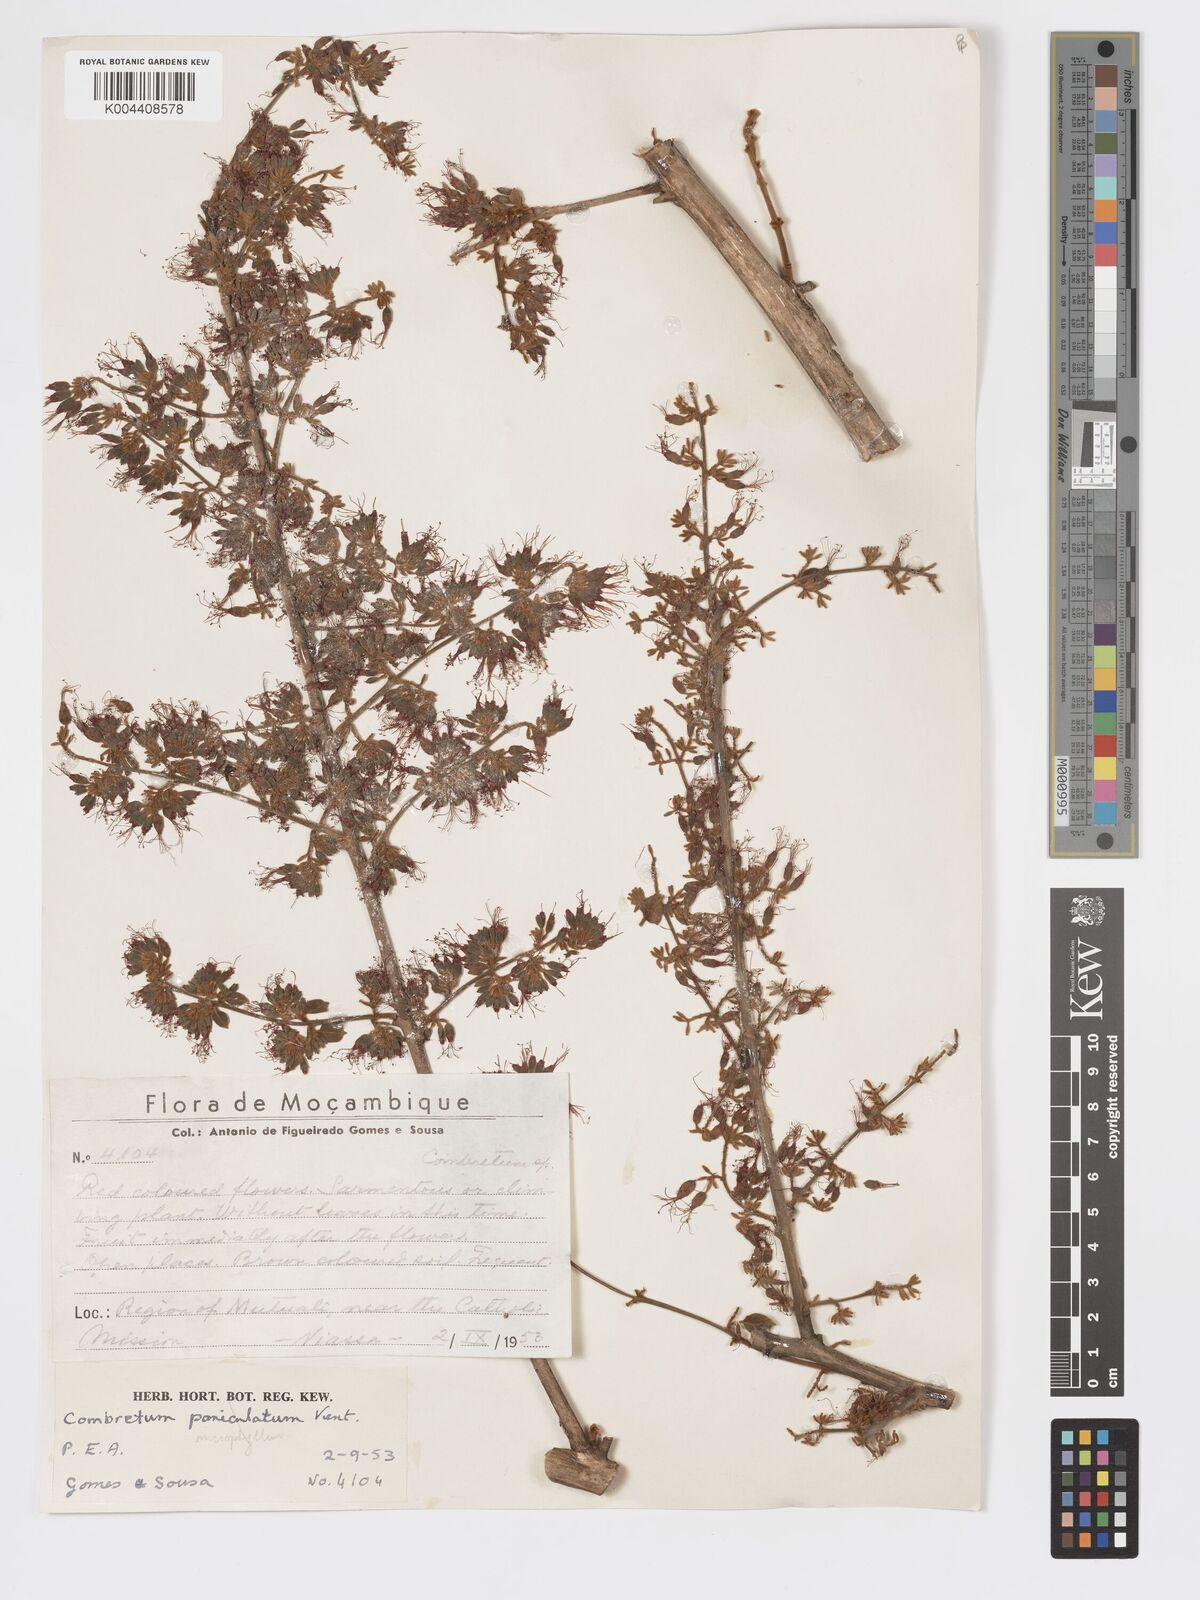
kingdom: Plantae
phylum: Tracheophyta
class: Magnoliopsida
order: Myrtales
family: Combretaceae
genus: Combretum
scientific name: Combretum microphyllum
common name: Burningbush
